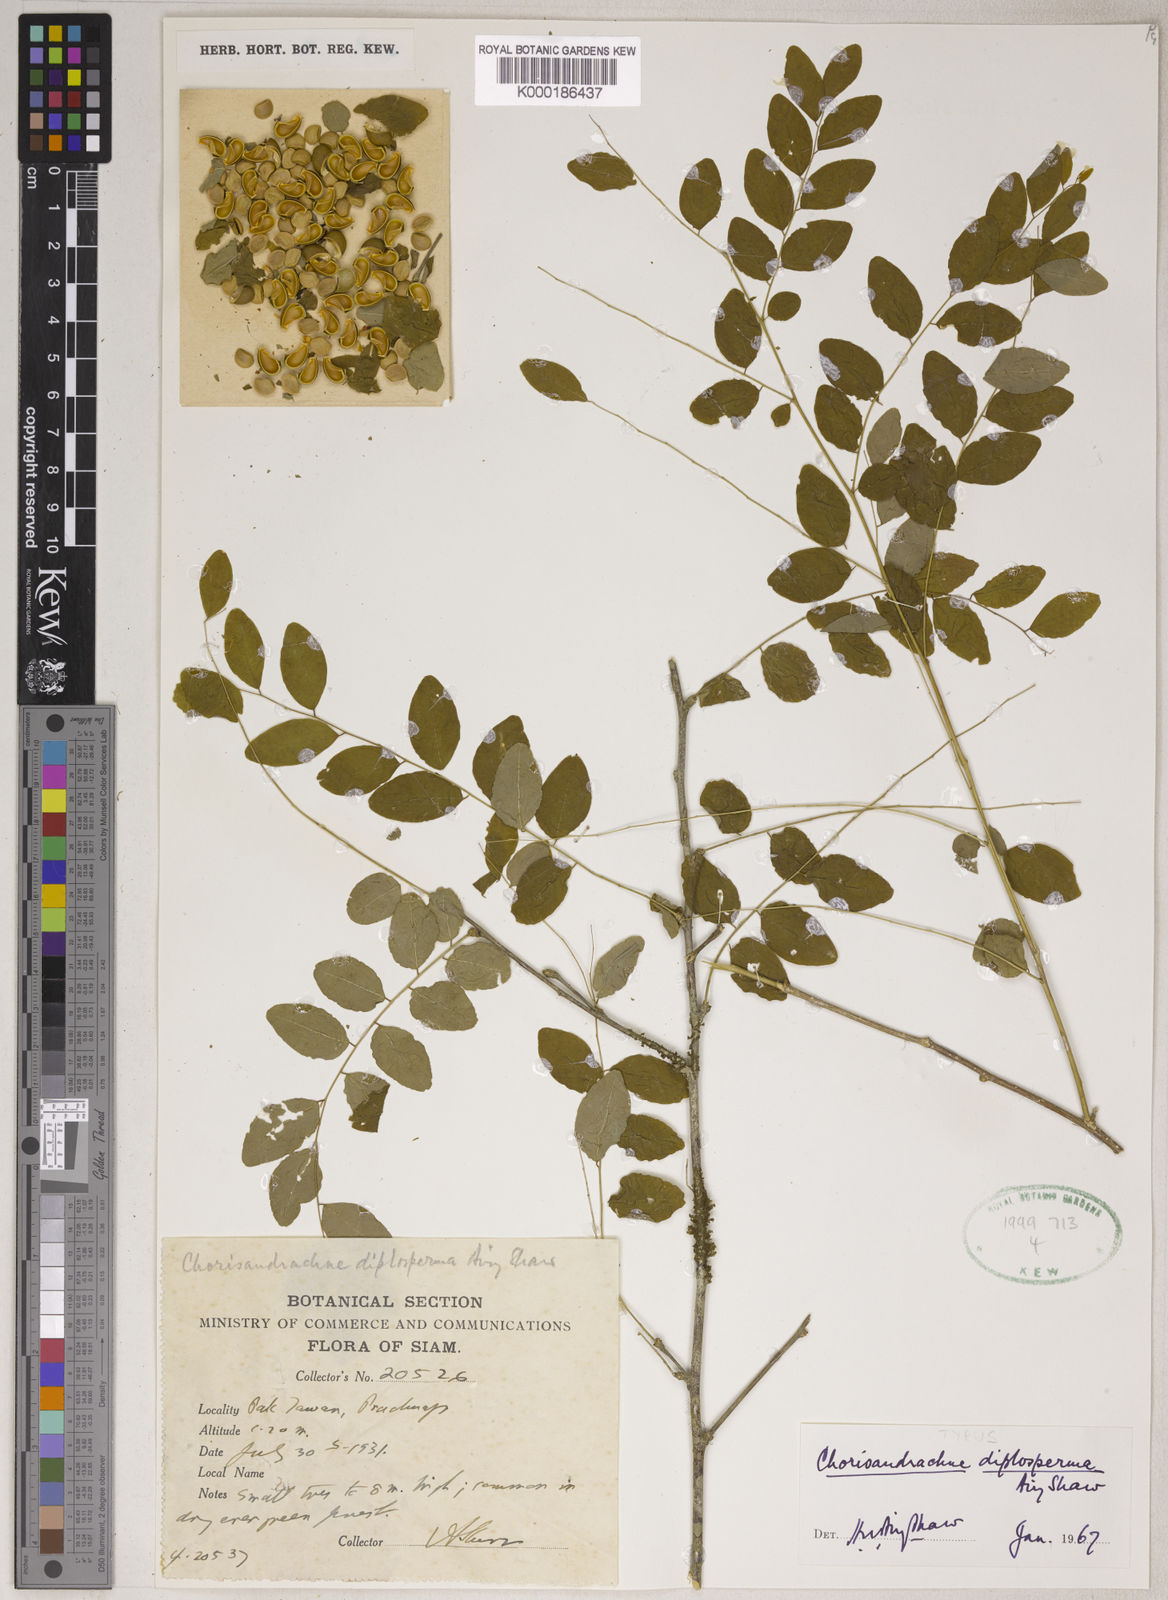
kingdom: Plantae
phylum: Tracheophyta
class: Magnoliopsida
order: Malpighiales
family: Phyllanthaceae
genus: Chorisandrachne
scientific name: Chorisandrachne diplosperma
